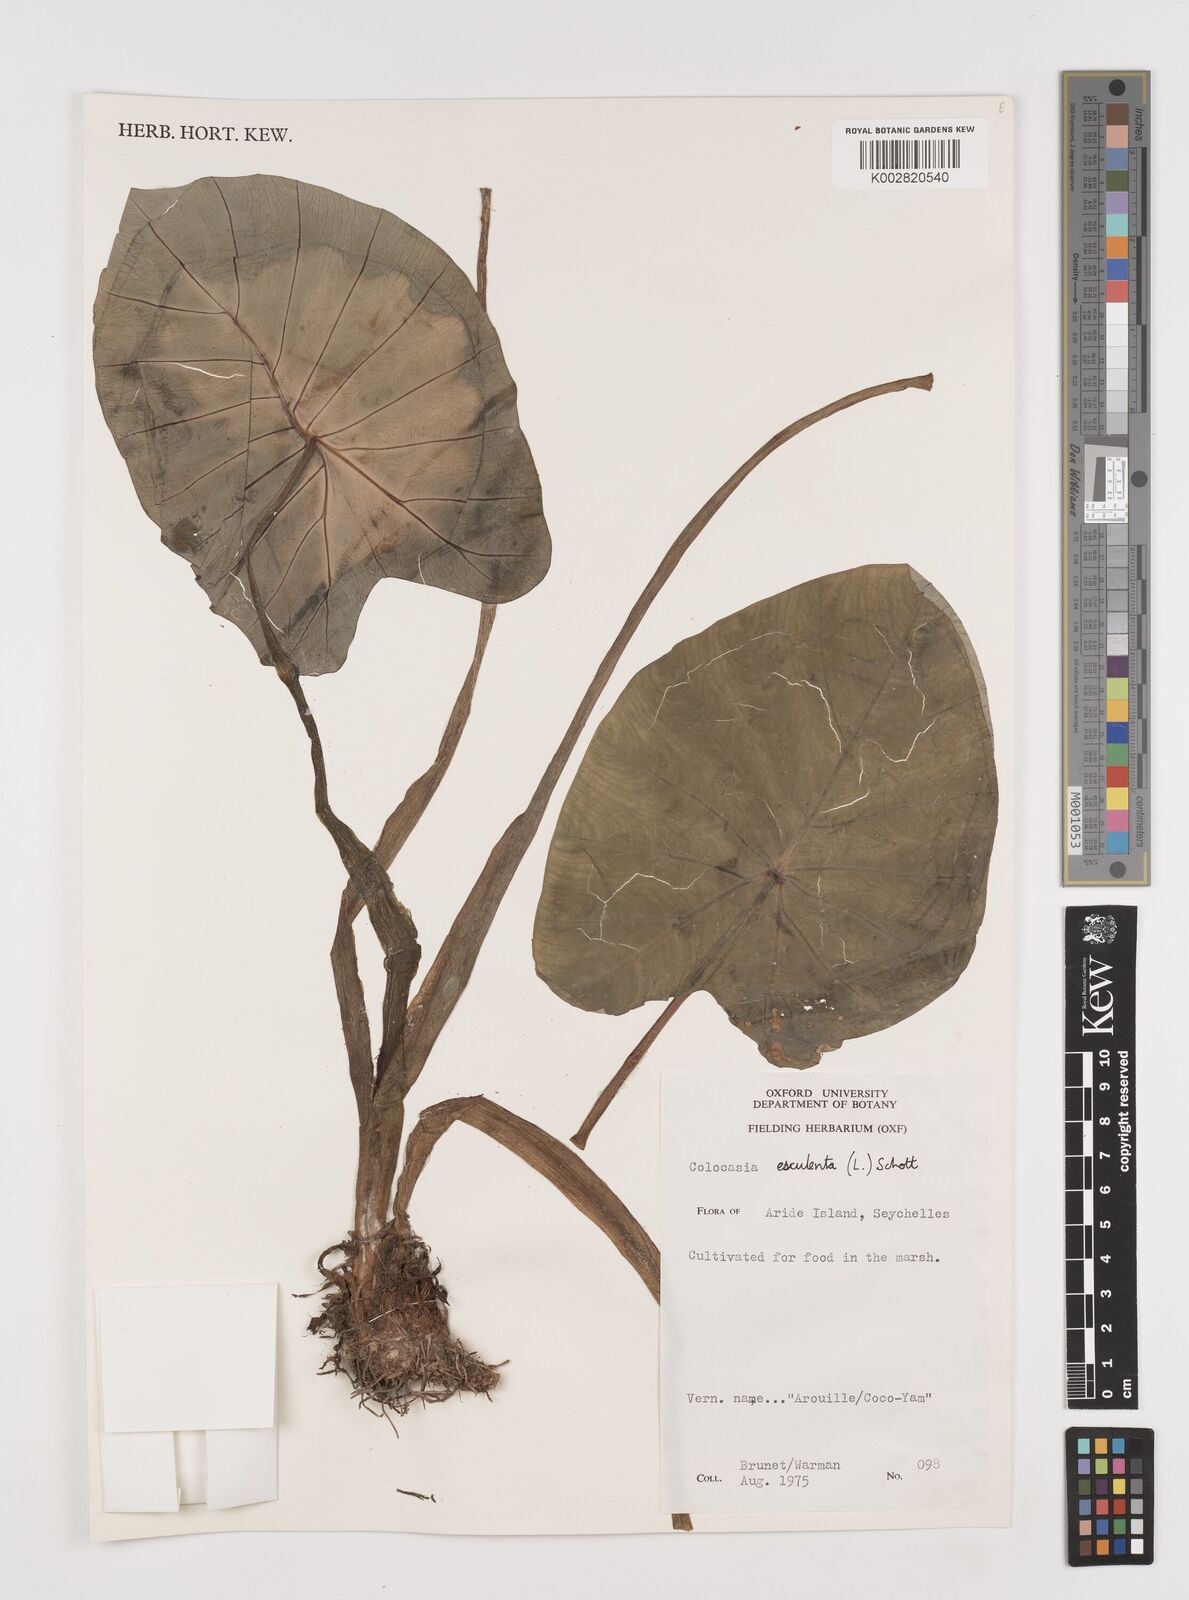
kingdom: Plantae
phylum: Tracheophyta
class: Liliopsida
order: Alismatales
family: Araceae
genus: Colocasia
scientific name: Colocasia esculenta
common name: Taro
